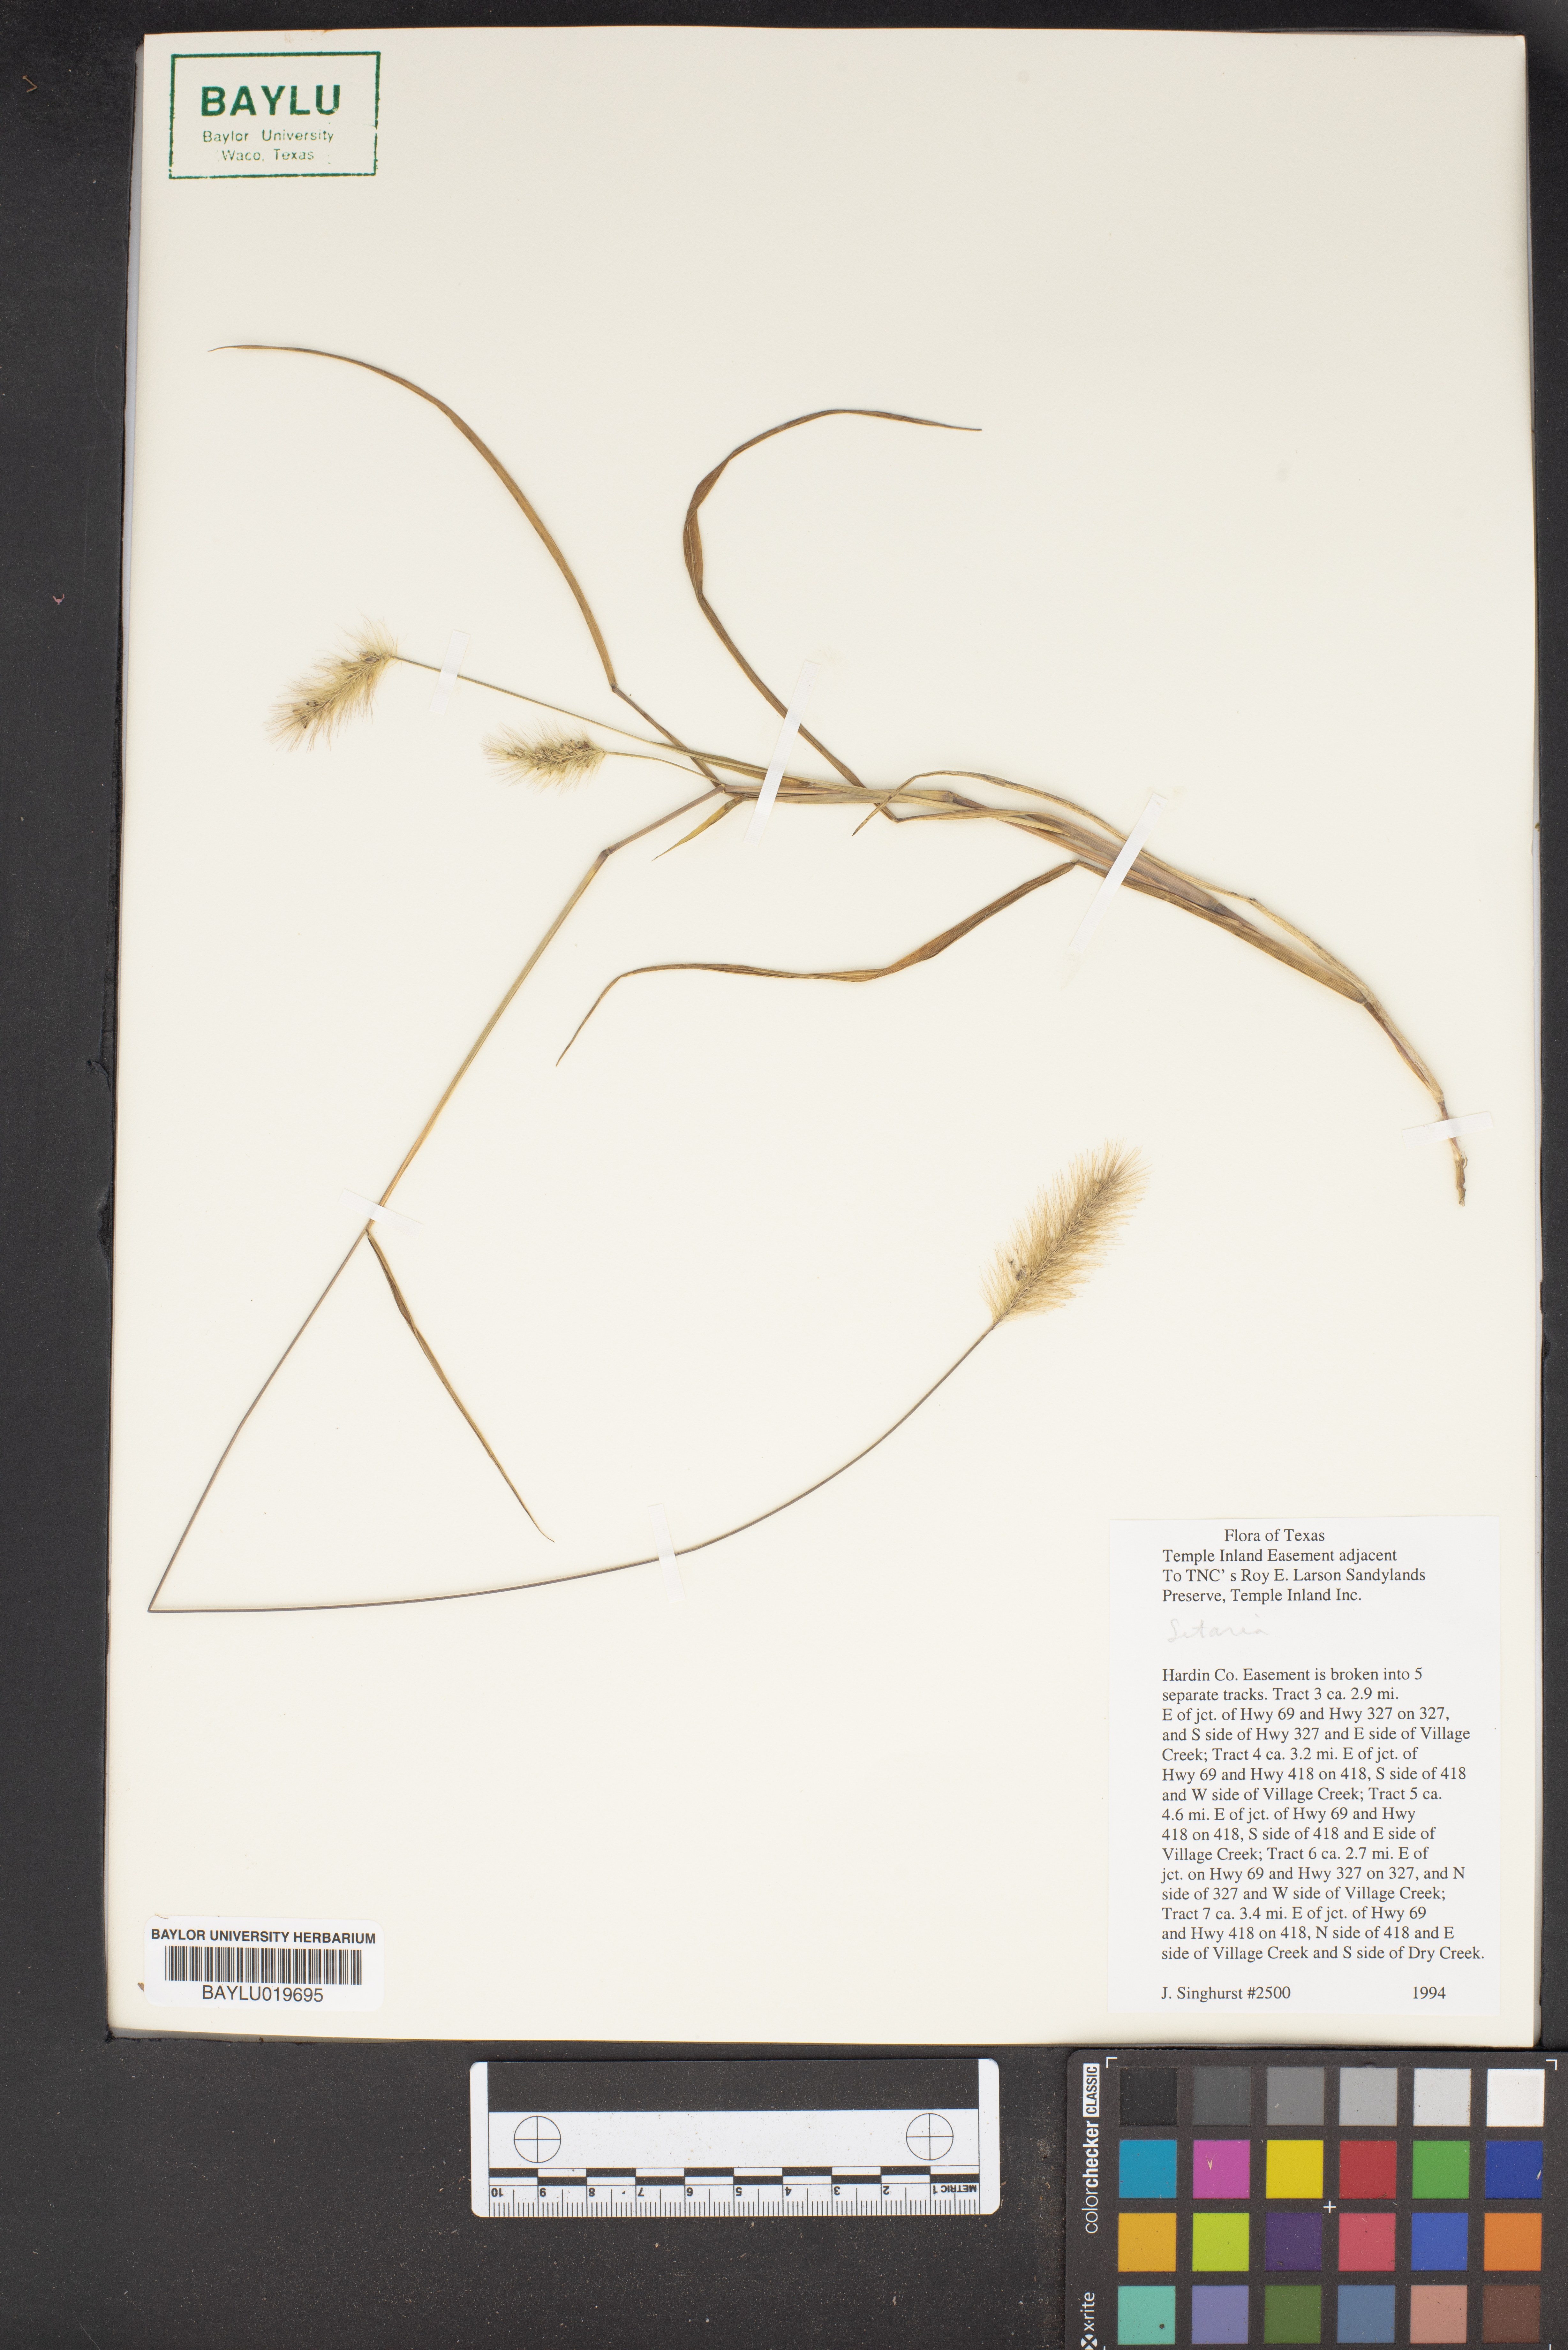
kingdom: Plantae
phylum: Tracheophyta
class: Liliopsida
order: Poales
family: Poaceae
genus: Setaria
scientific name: Setaria
